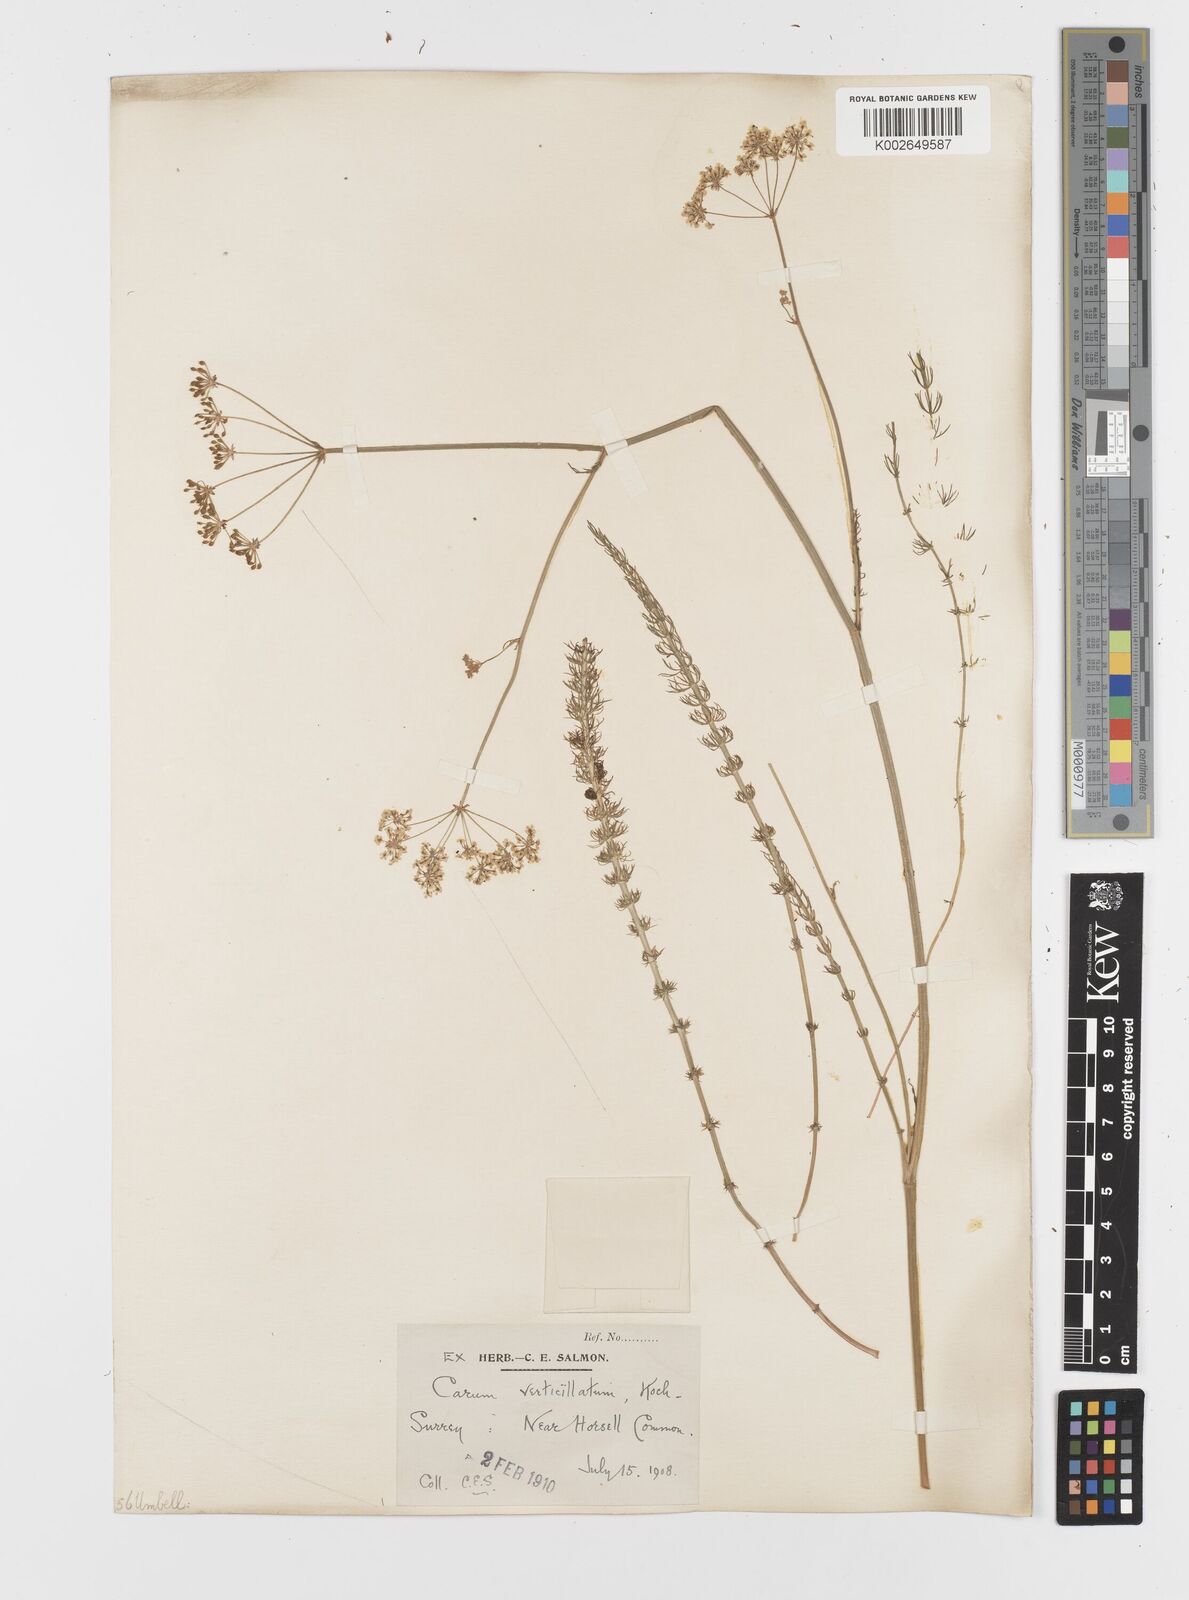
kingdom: Plantae
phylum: Tracheophyta
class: Magnoliopsida
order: Apiales
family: Apiaceae
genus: Trocdaris
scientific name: Trocdaris verticillatum
